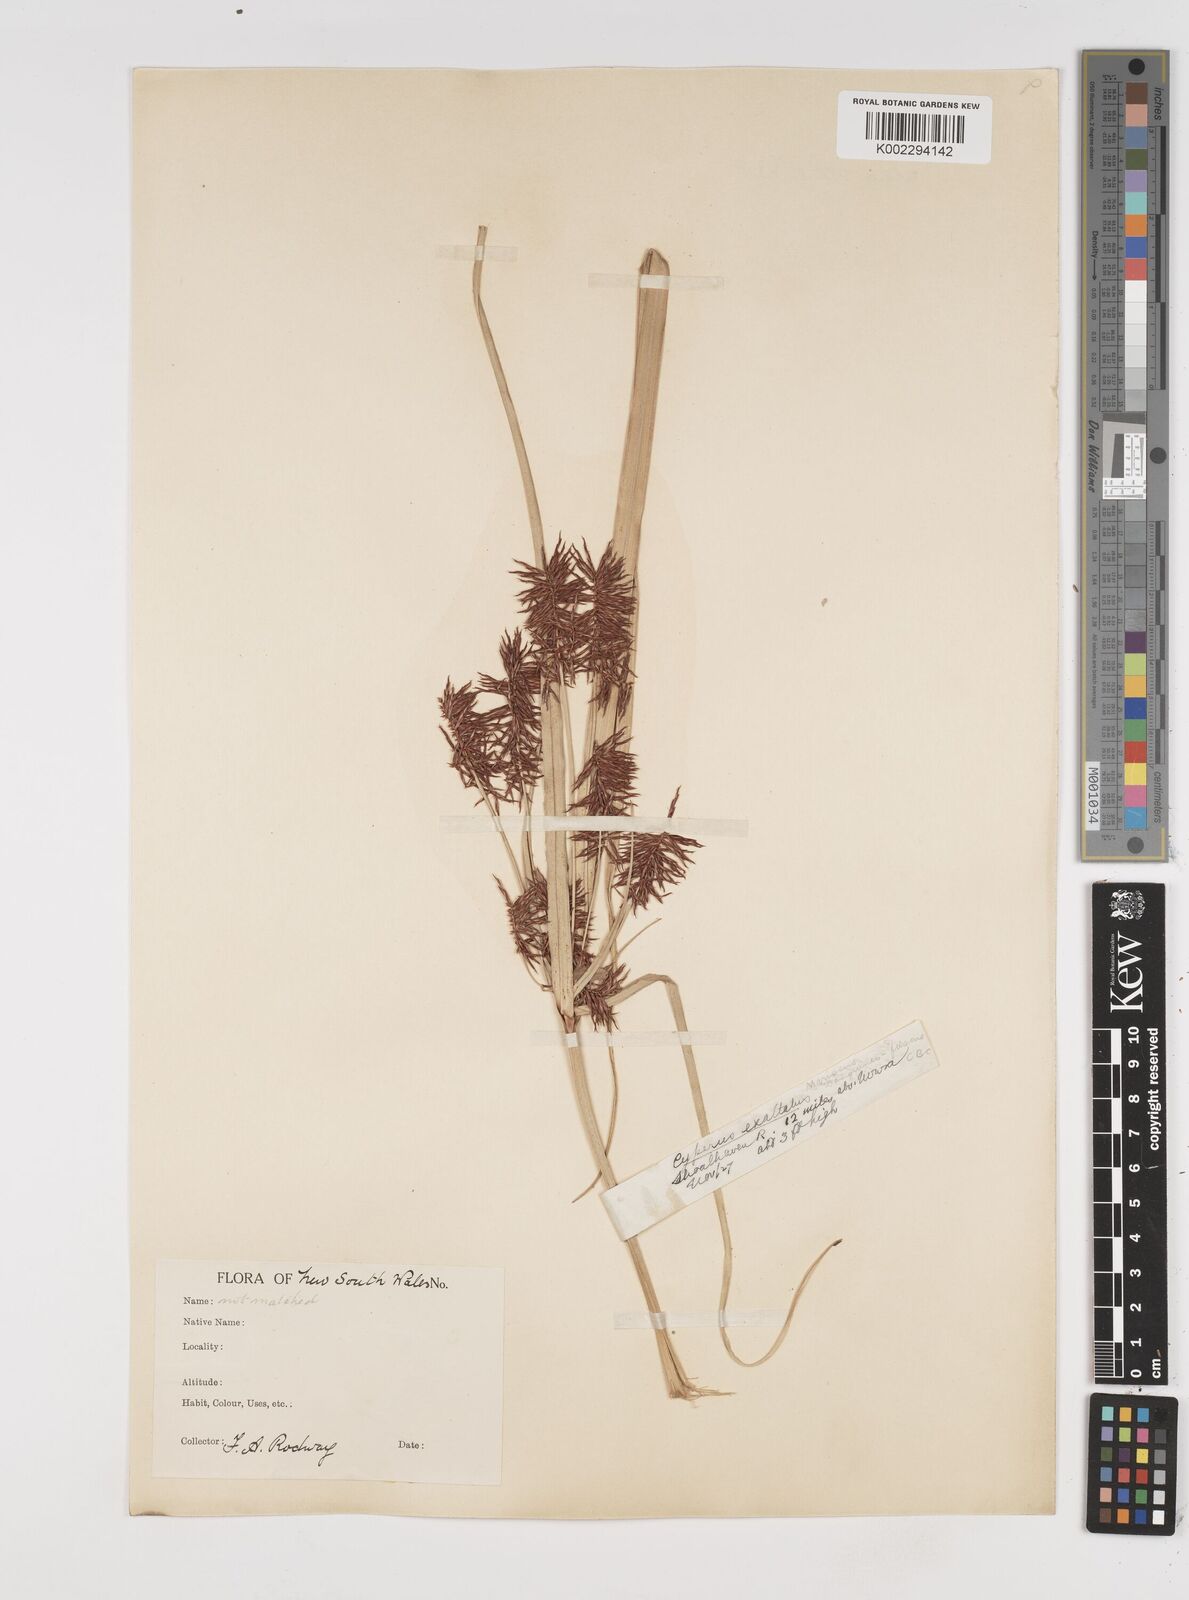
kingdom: Plantae
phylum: Tracheophyta
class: Liliopsida
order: Poales
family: Cyperaceae
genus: Cyperus
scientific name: Cyperus lucidus
